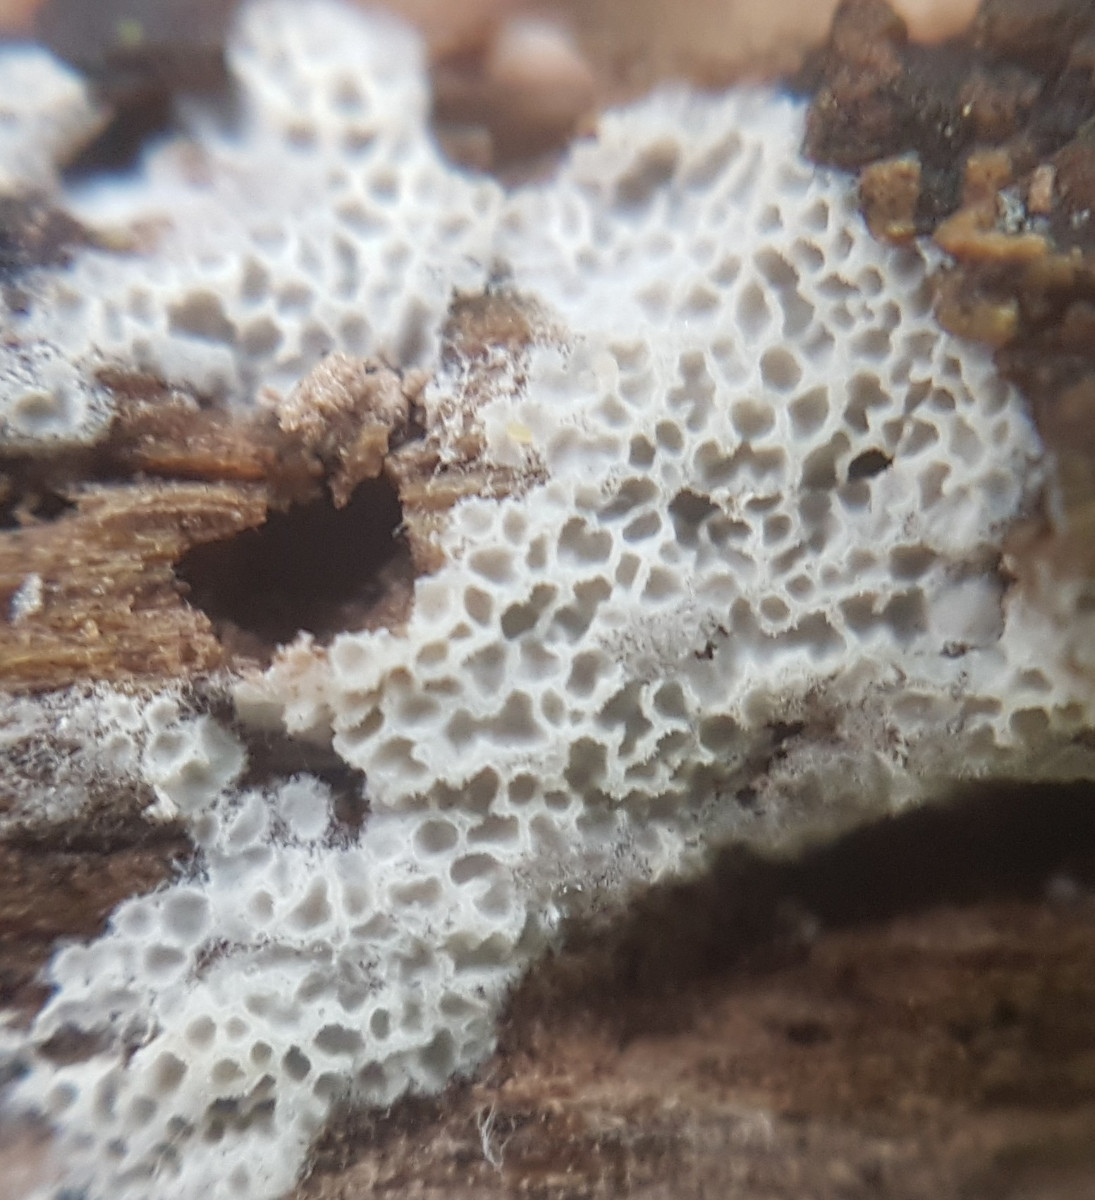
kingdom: Fungi
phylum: Basidiomycota
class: Agaricomycetes
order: Polyporales
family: Irpicaceae
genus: Ceriporia
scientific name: Ceriporia reticulata
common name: netagtig voksporesvamp
